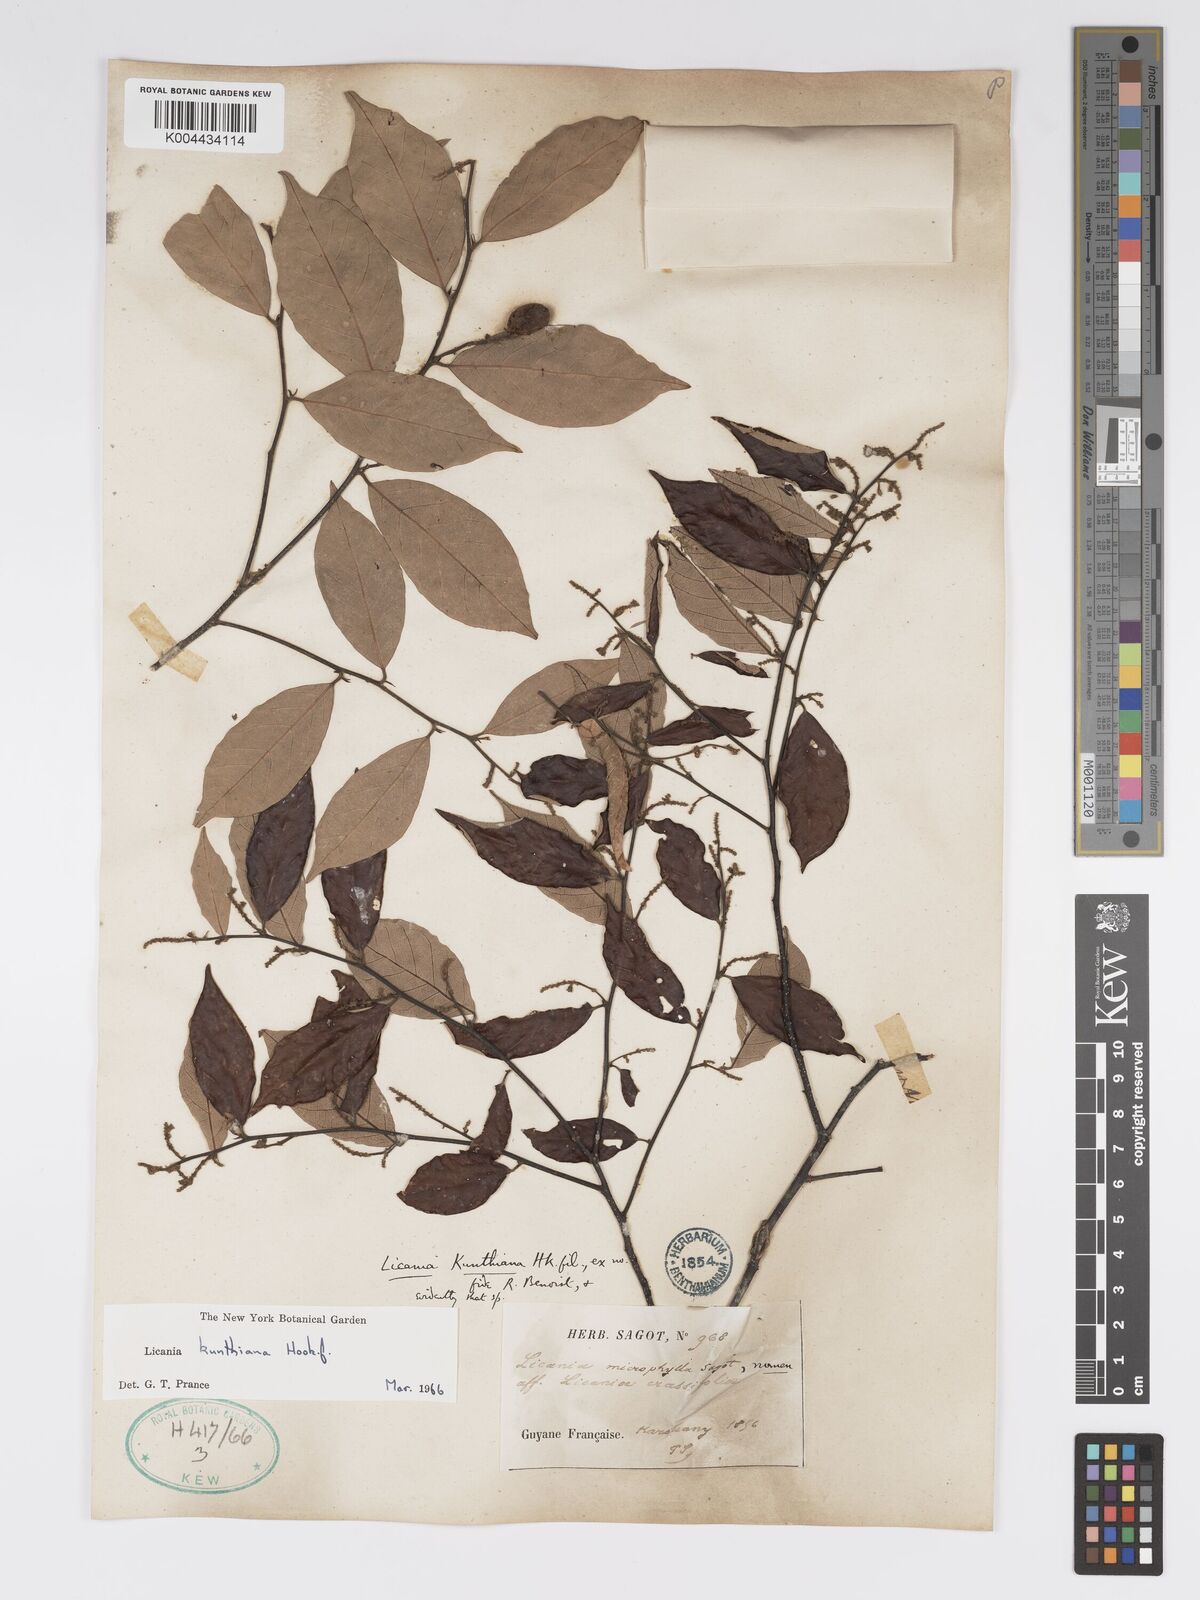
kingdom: Plantae
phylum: Tracheophyta
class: Magnoliopsida
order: Malpighiales
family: Chrysobalanaceae
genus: Licania
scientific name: Licania kunthiana
